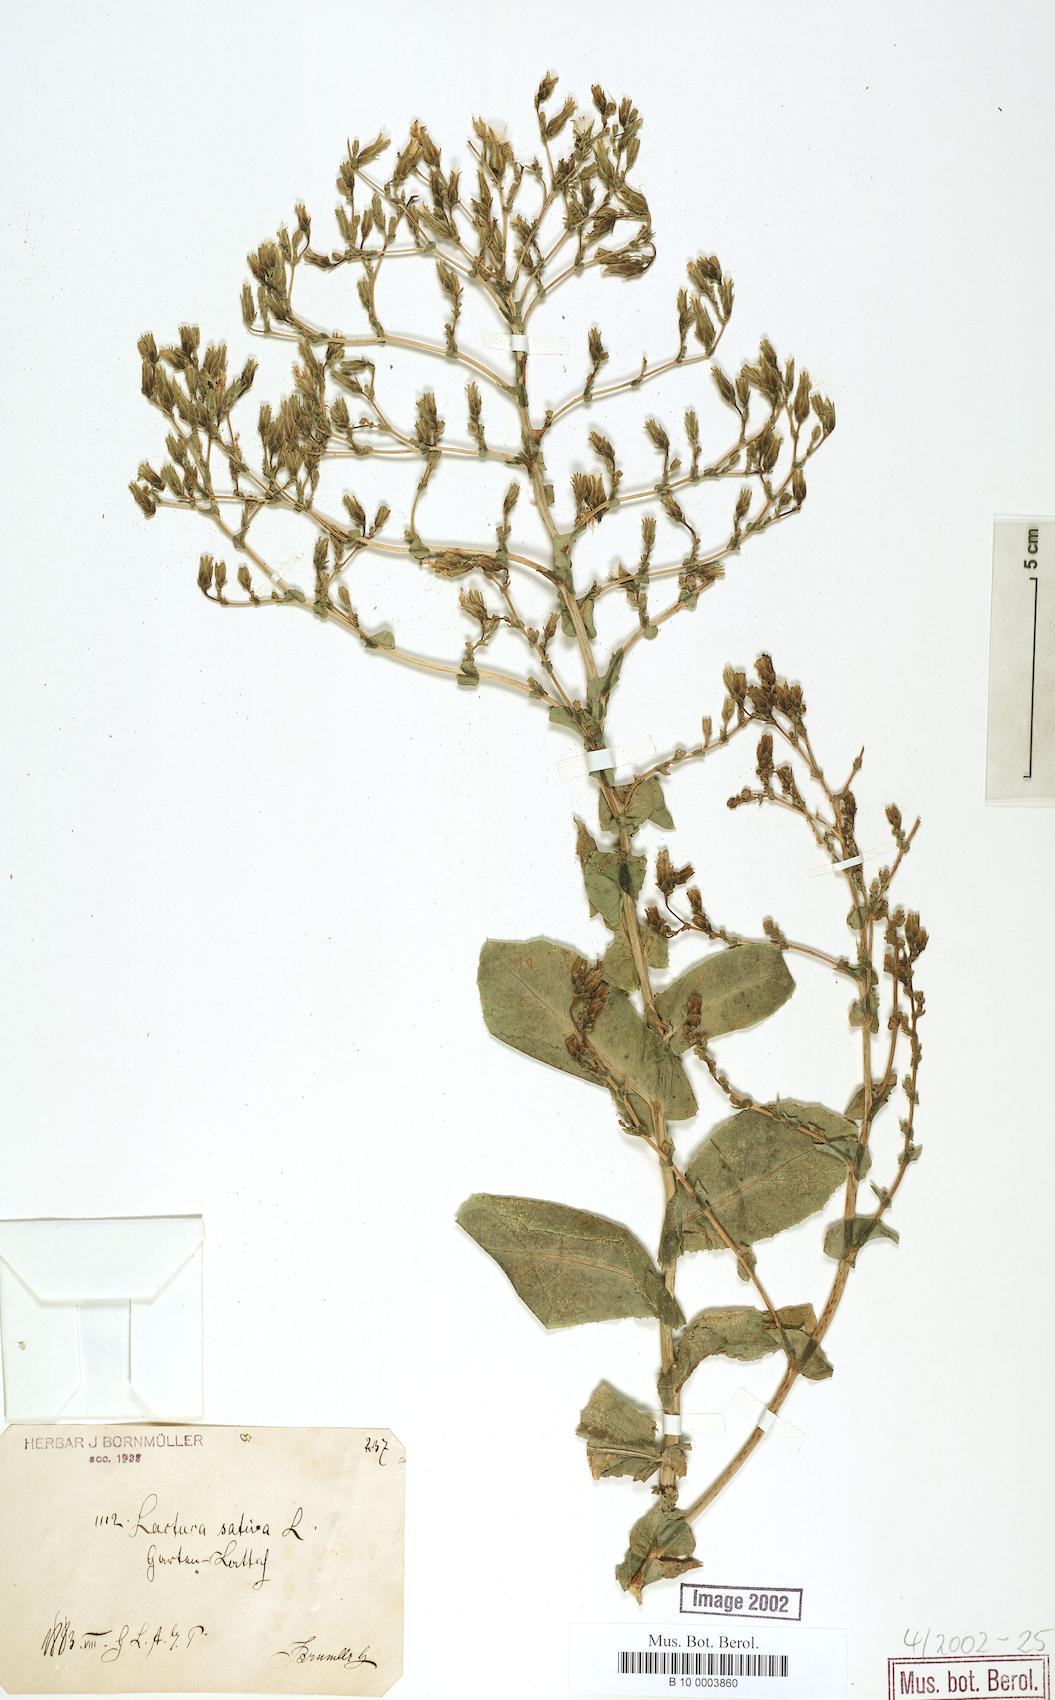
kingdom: Plantae
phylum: Tracheophyta
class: Magnoliopsida
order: Asterales
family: Asteraceae
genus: Lactuca
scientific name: Lactuca sativa
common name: Garden lettuce
